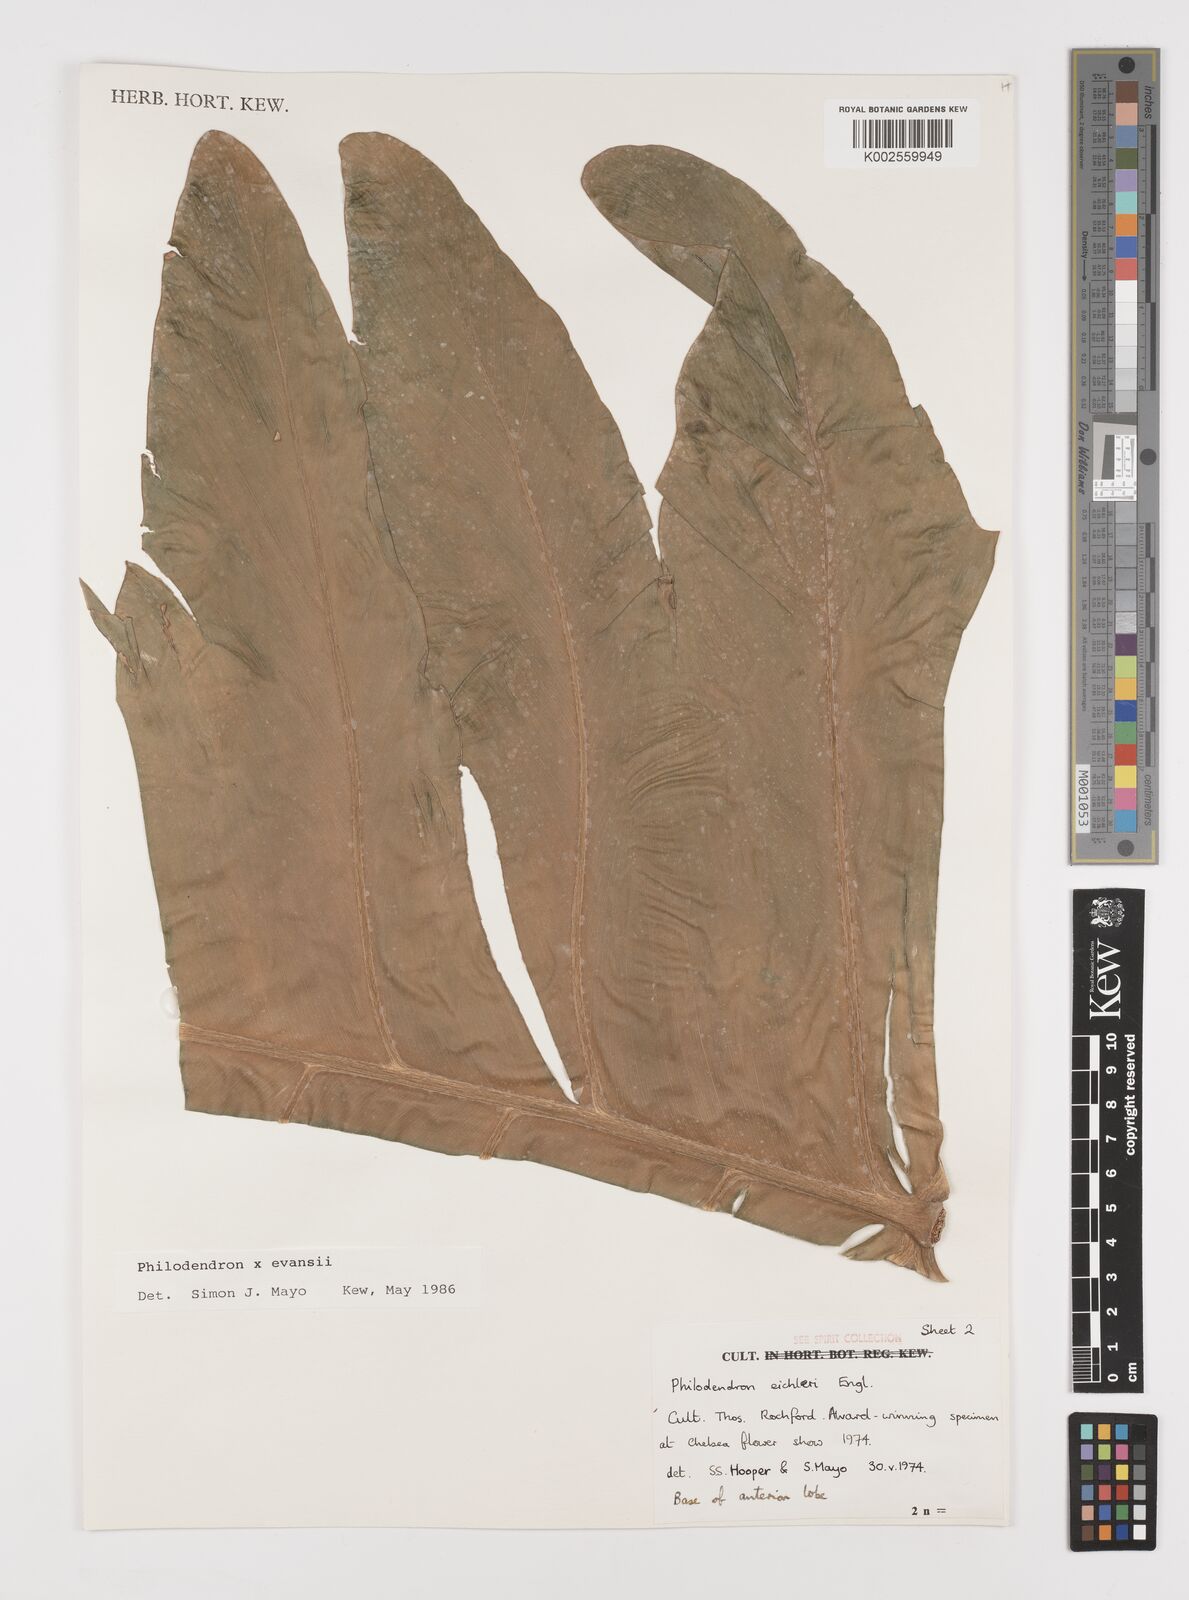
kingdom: Plantae
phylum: Tracheophyta
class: Liliopsida
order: Alismatales
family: Araceae
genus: Philodendron
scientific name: Philodendron
